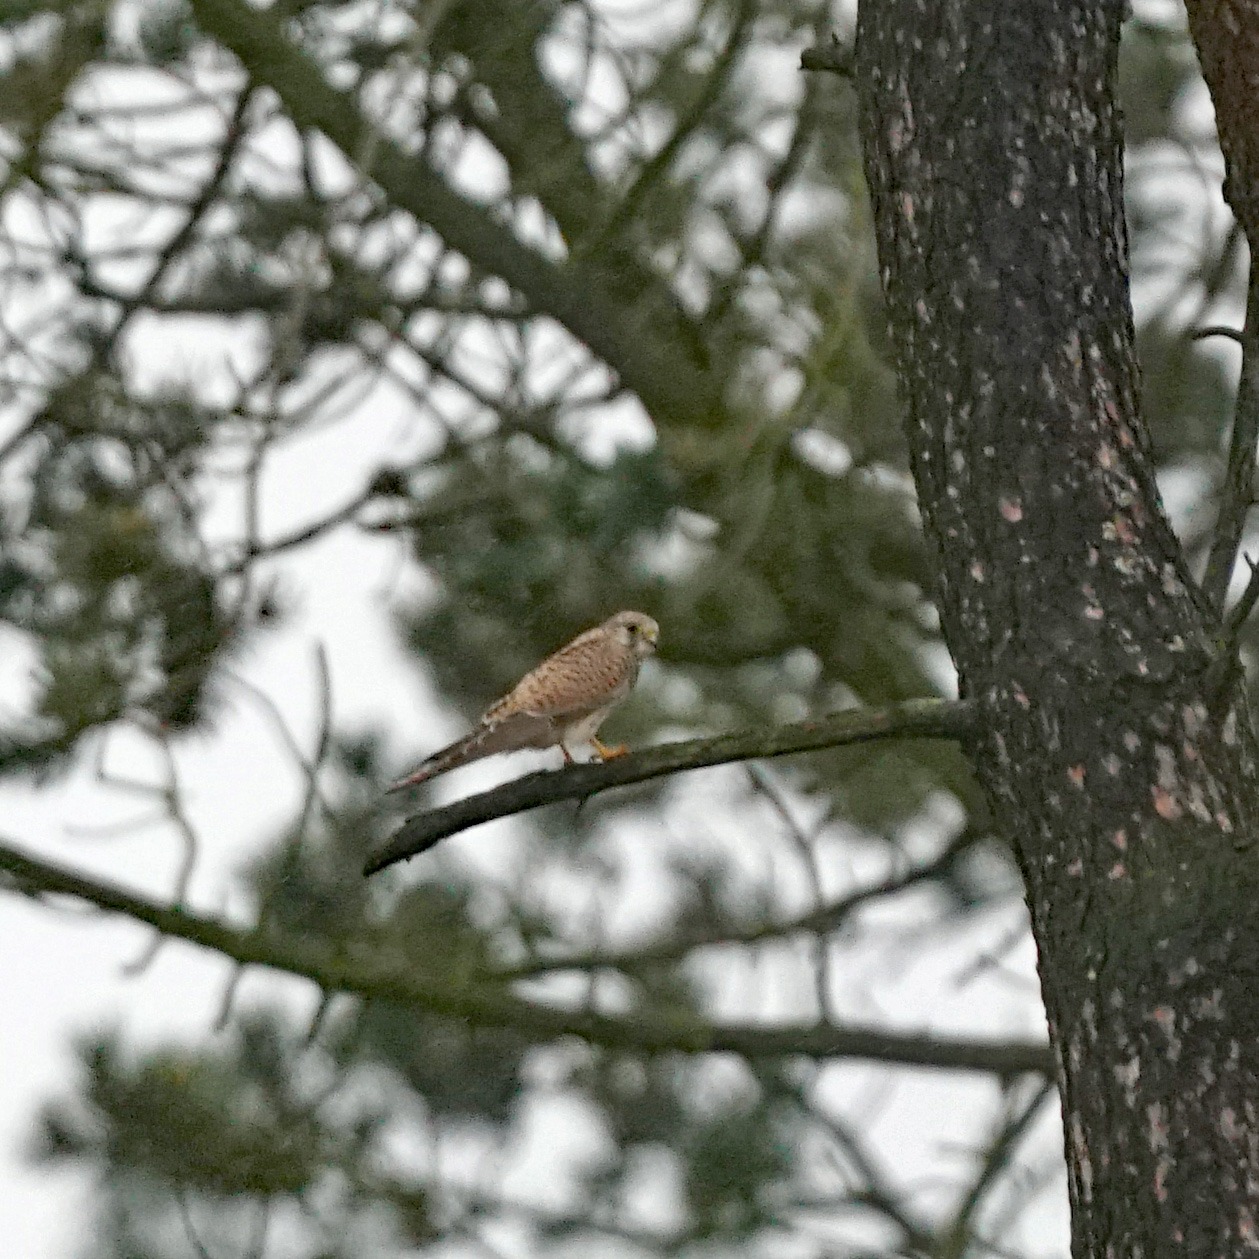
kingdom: Animalia
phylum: Chordata
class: Aves
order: Falconiformes
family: Falconidae
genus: Falco
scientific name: Falco tinnunculus
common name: Tårnfalk
